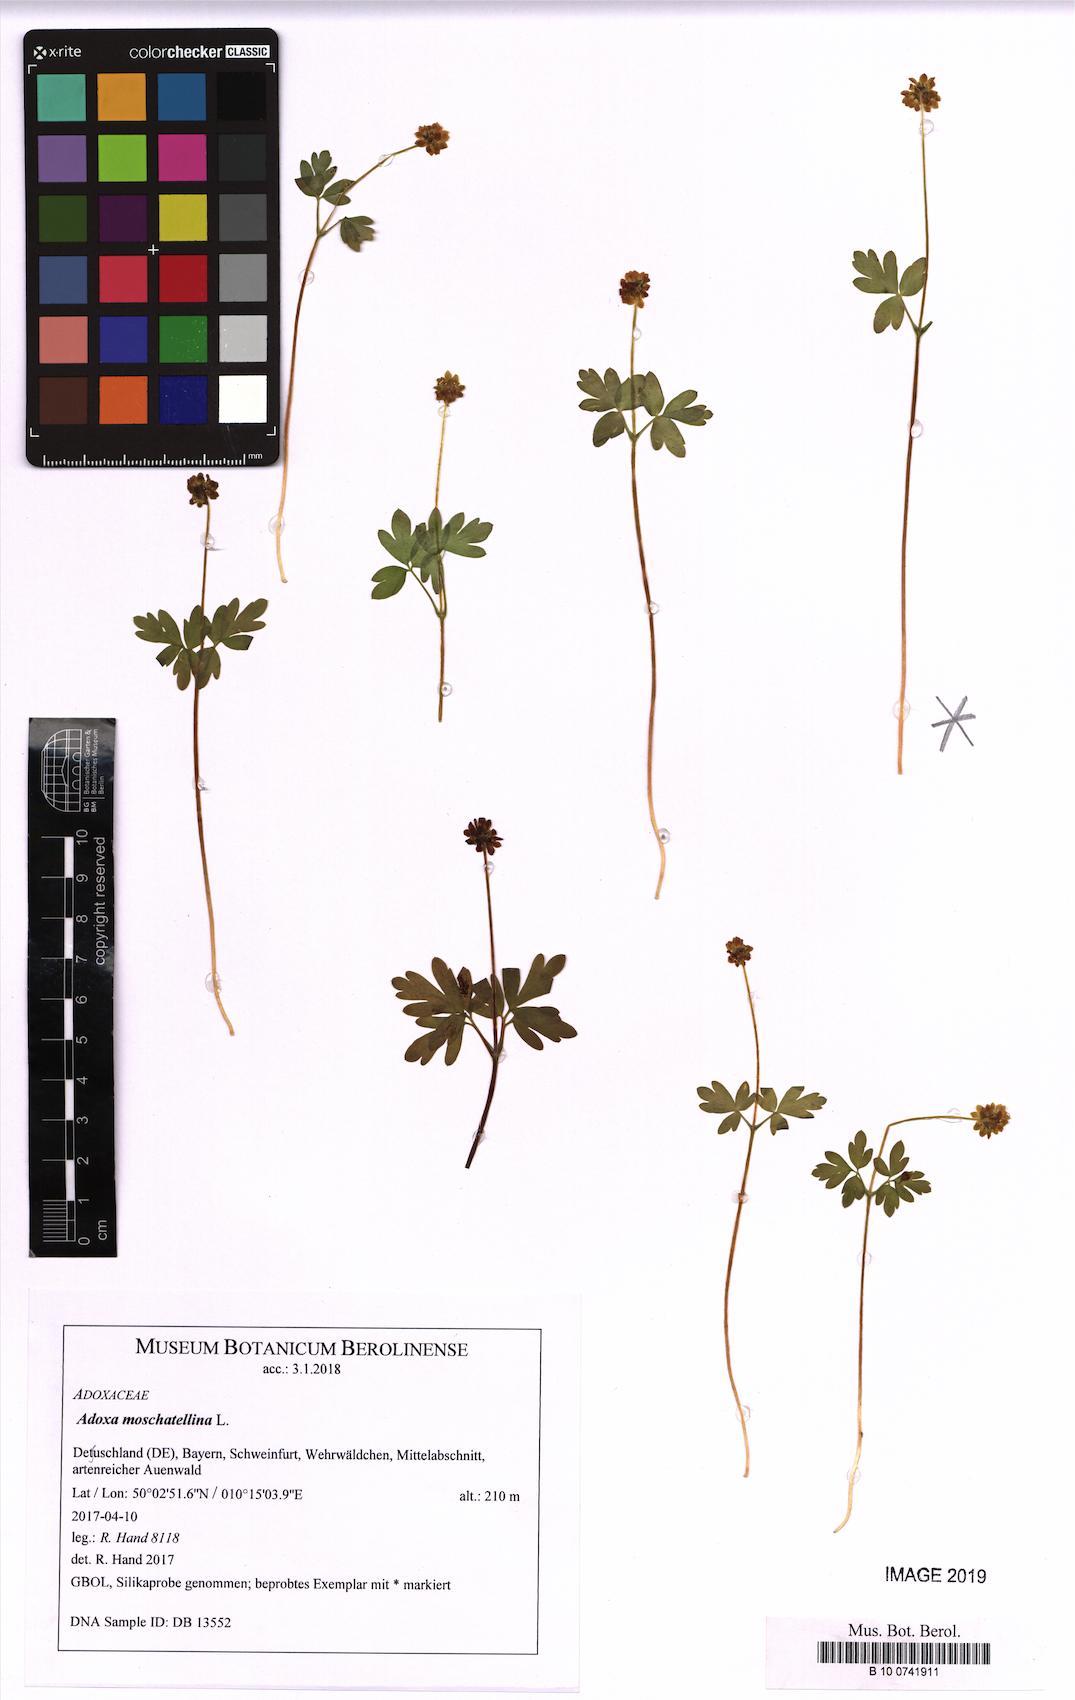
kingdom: Plantae
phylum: Tracheophyta
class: Magnoliopsida
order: Dipsacales
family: Viburnaceae
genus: Adoxa
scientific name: Adoxa moschatellina
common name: Moschatel
